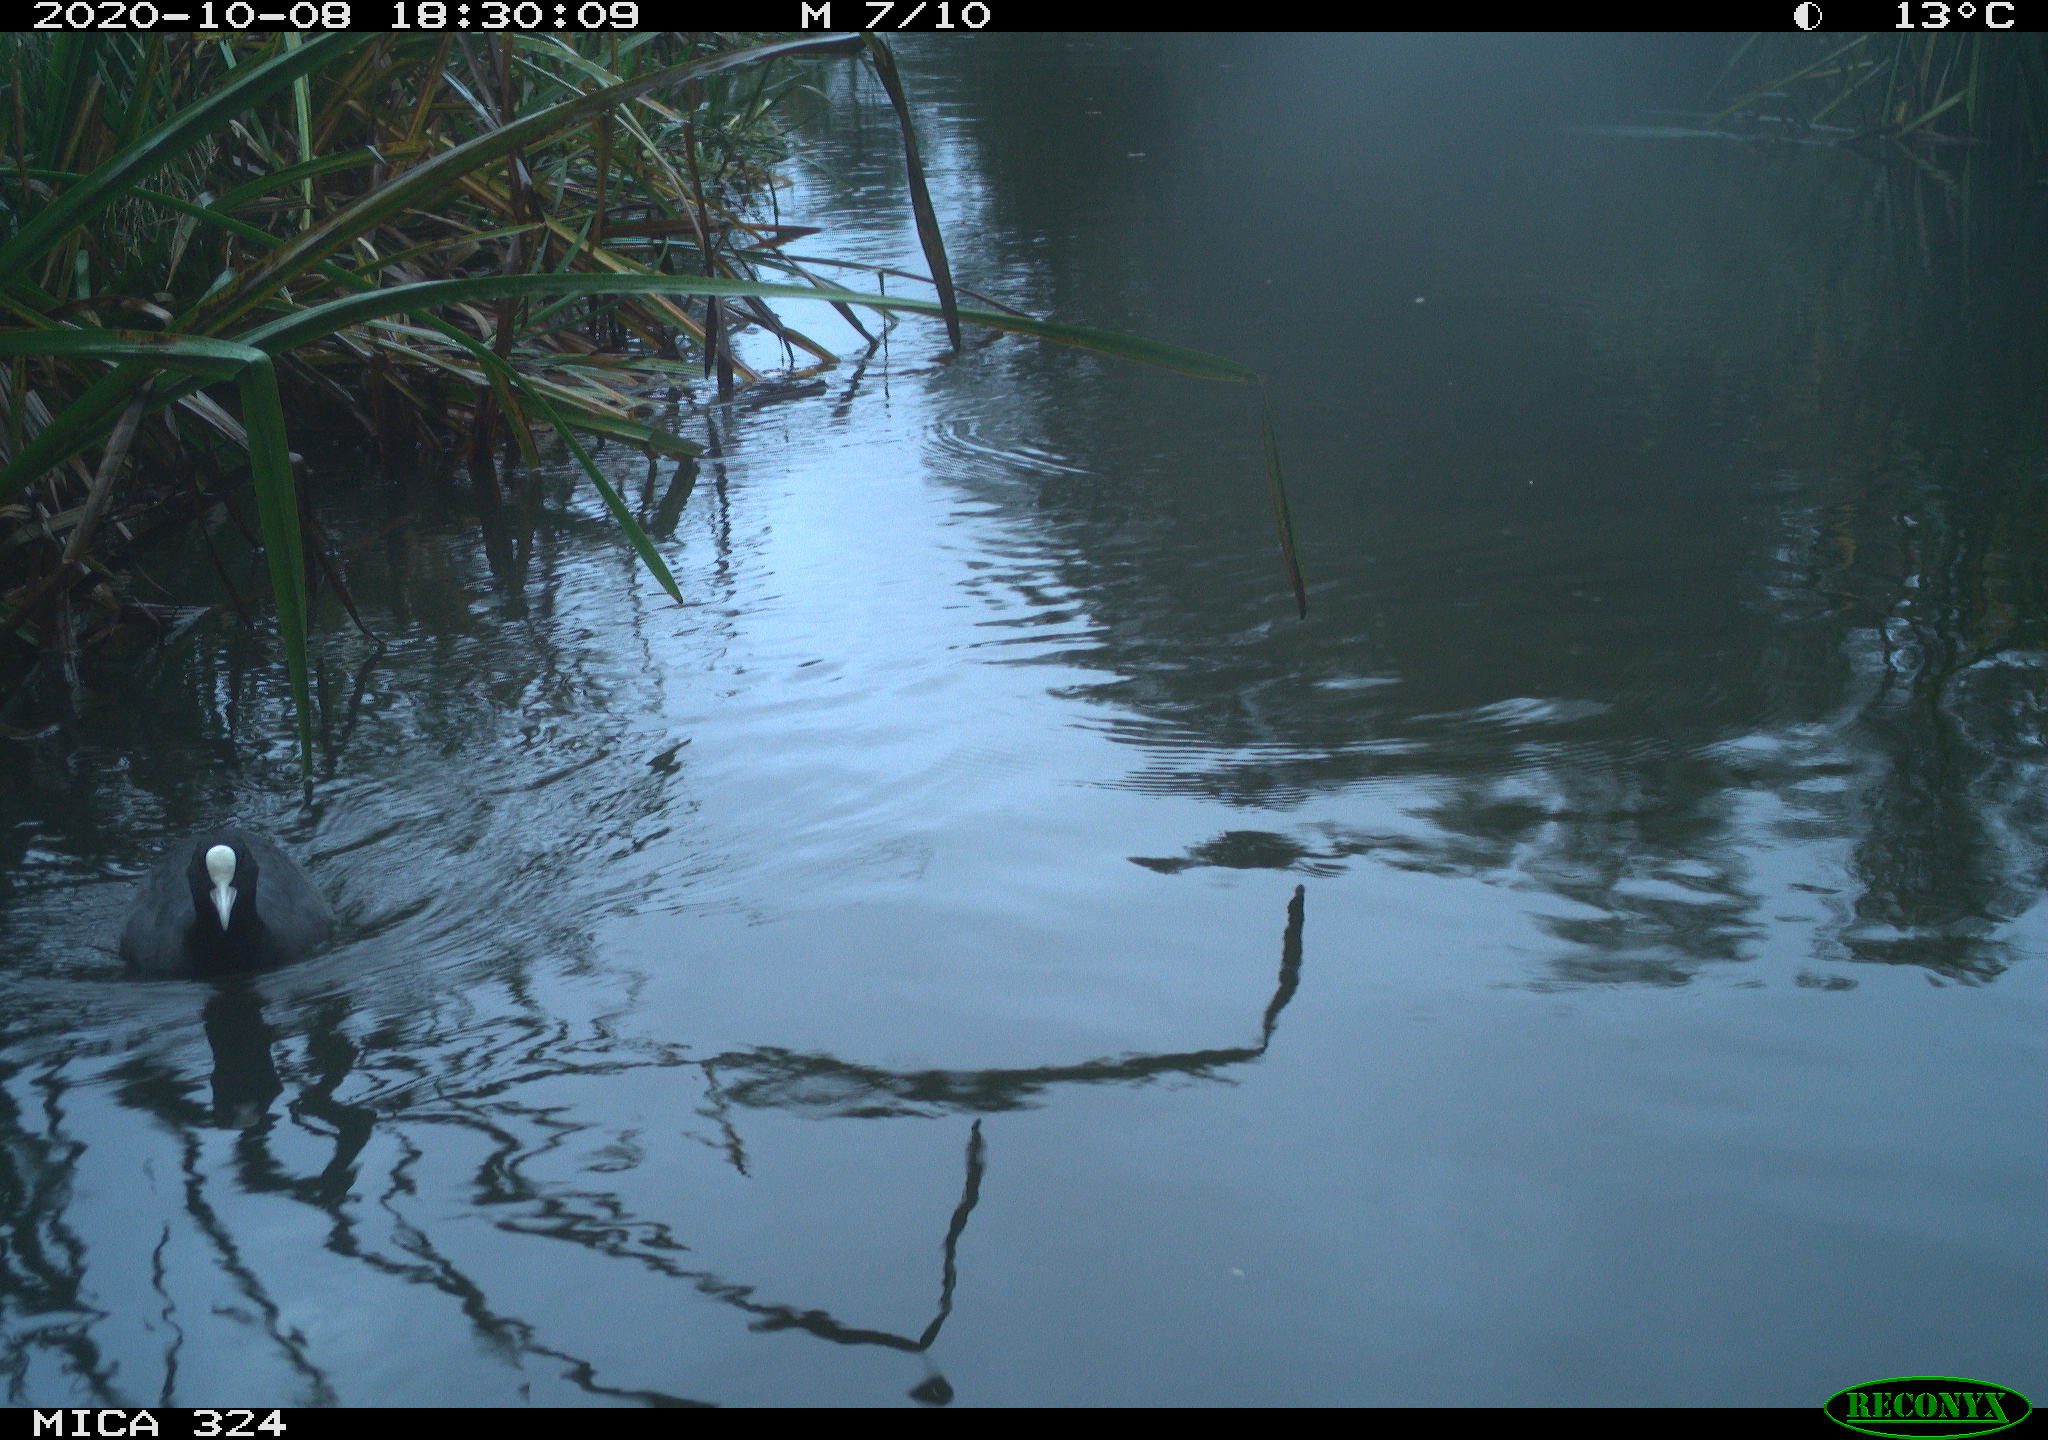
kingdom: Animalia
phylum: Chordata
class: Aves
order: Gruiformes
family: Rallidae
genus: Fulica
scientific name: Fulica atra
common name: Eurasian coot
